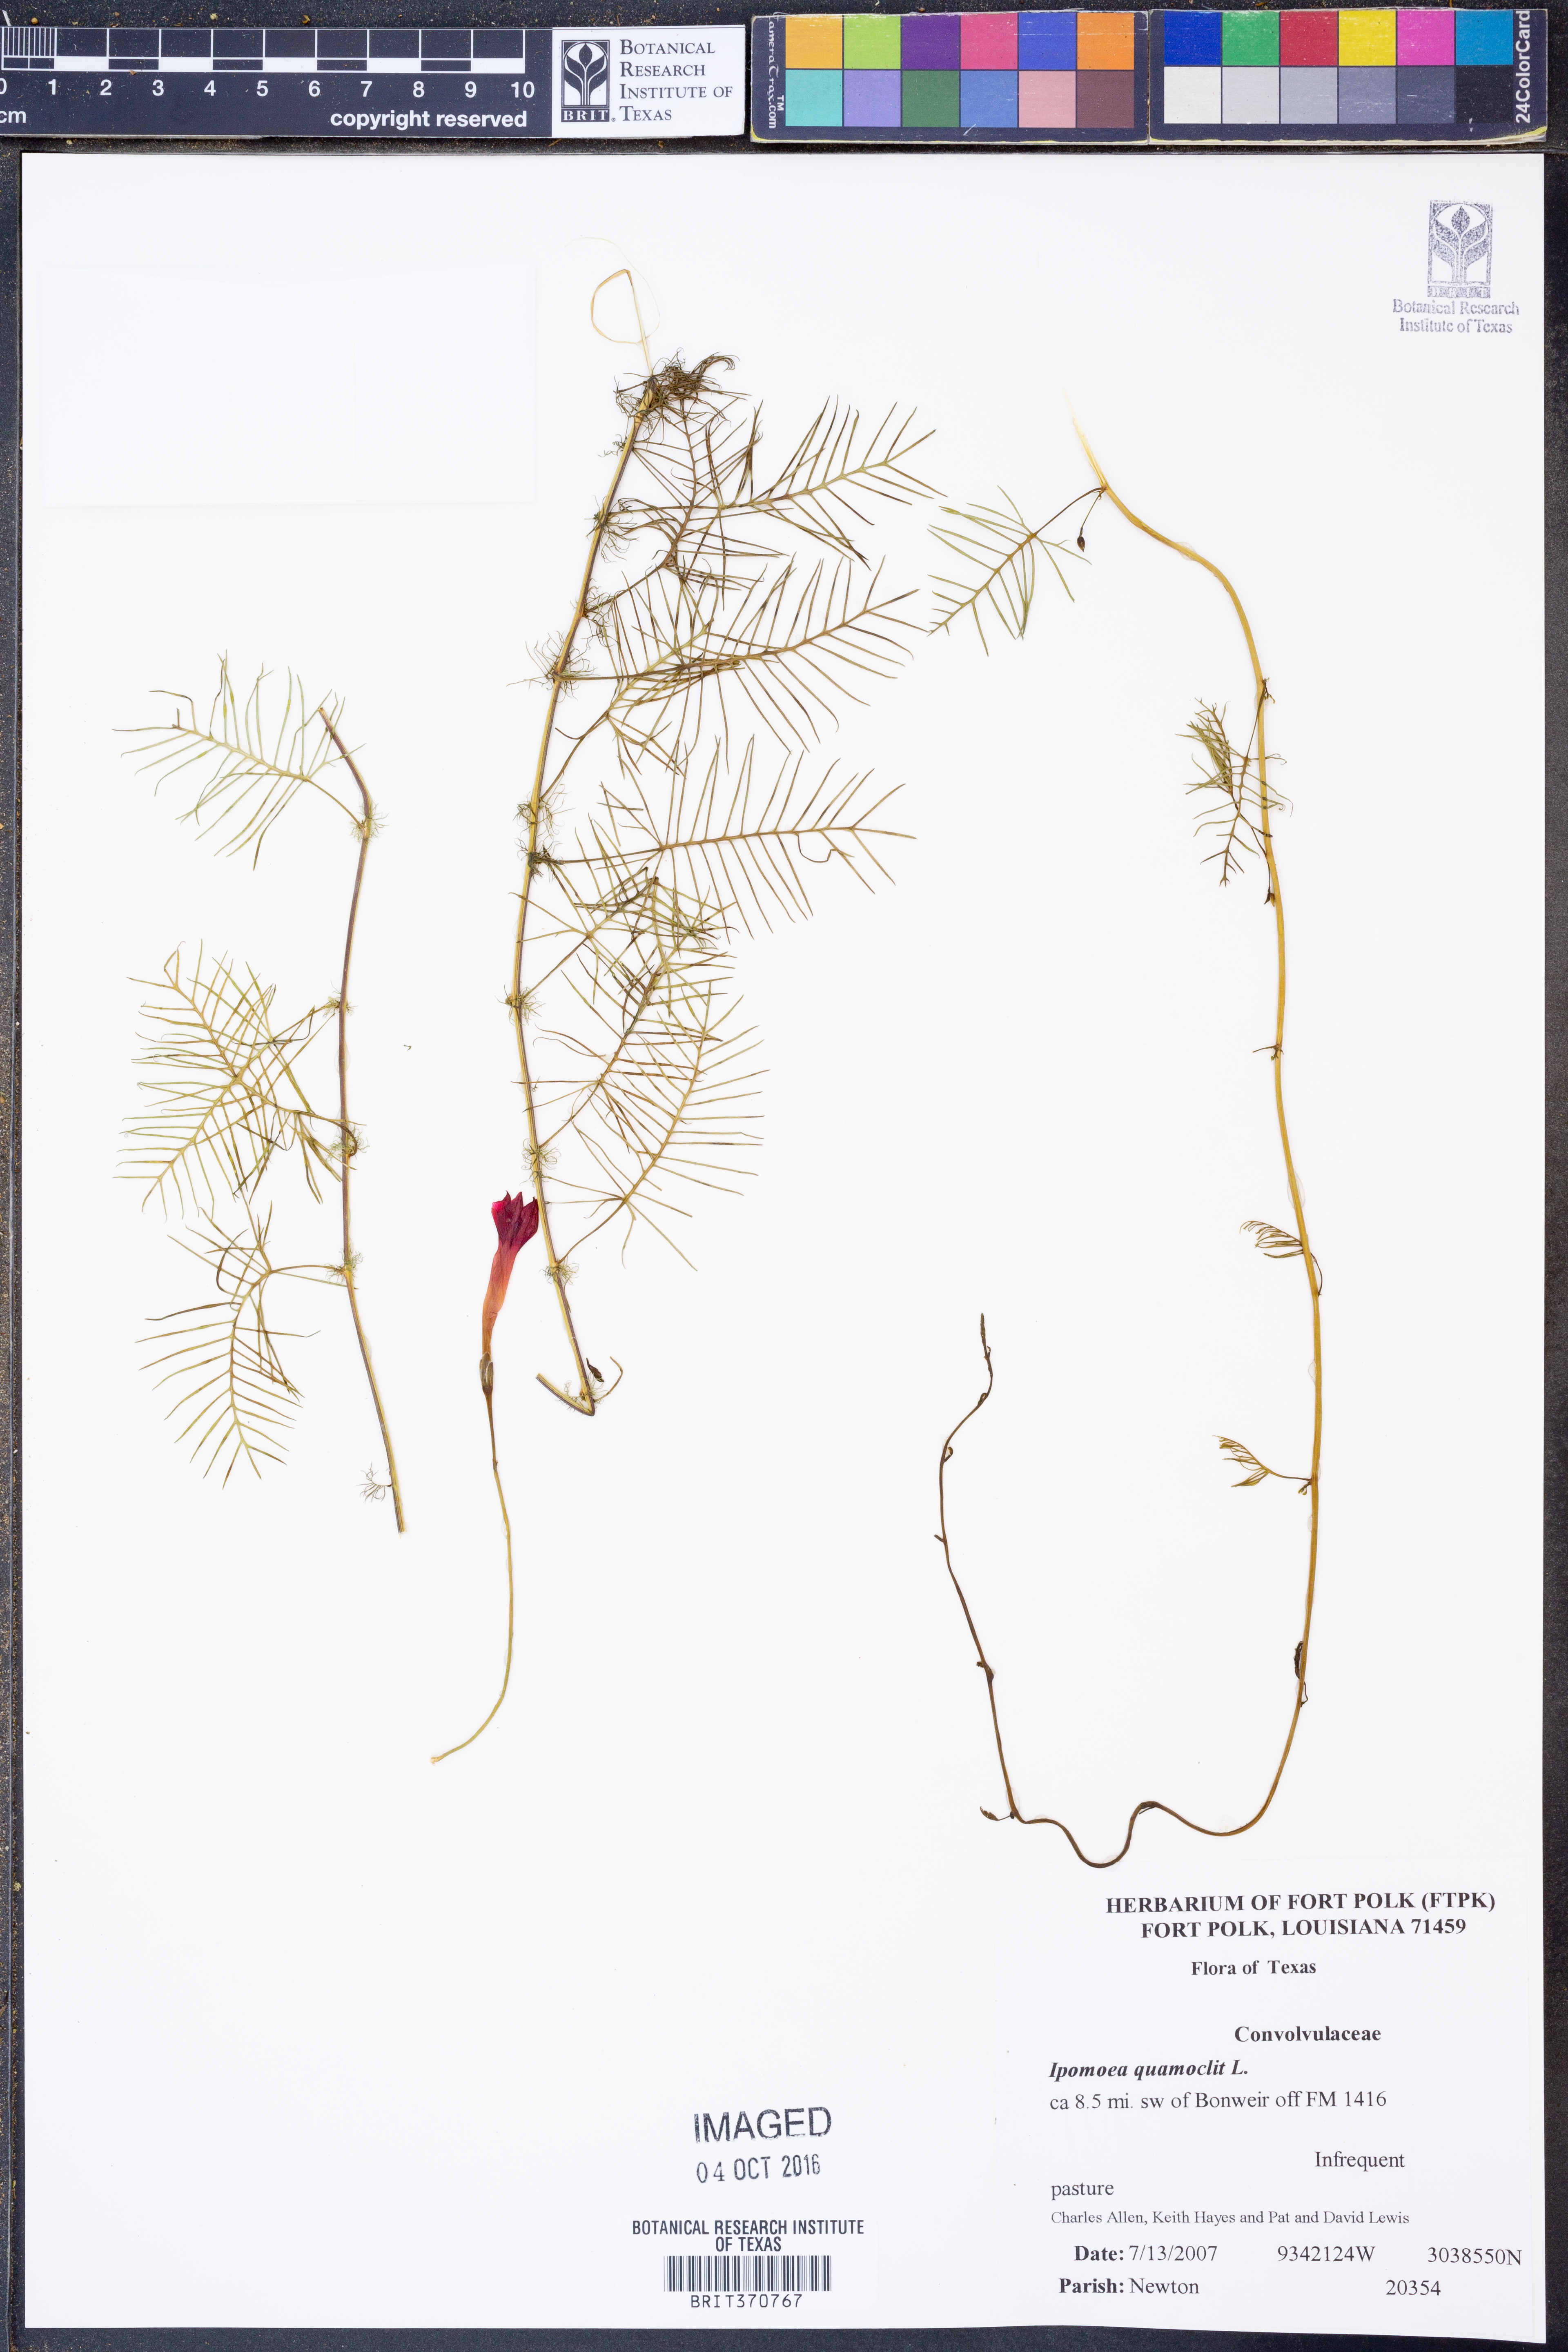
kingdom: Plantae
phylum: Tracheophyta
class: Magnoliopsida
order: Solanales
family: Convolvulaceae
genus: Ipomoea
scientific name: Ipomoea quamoclit
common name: Cypress vine
